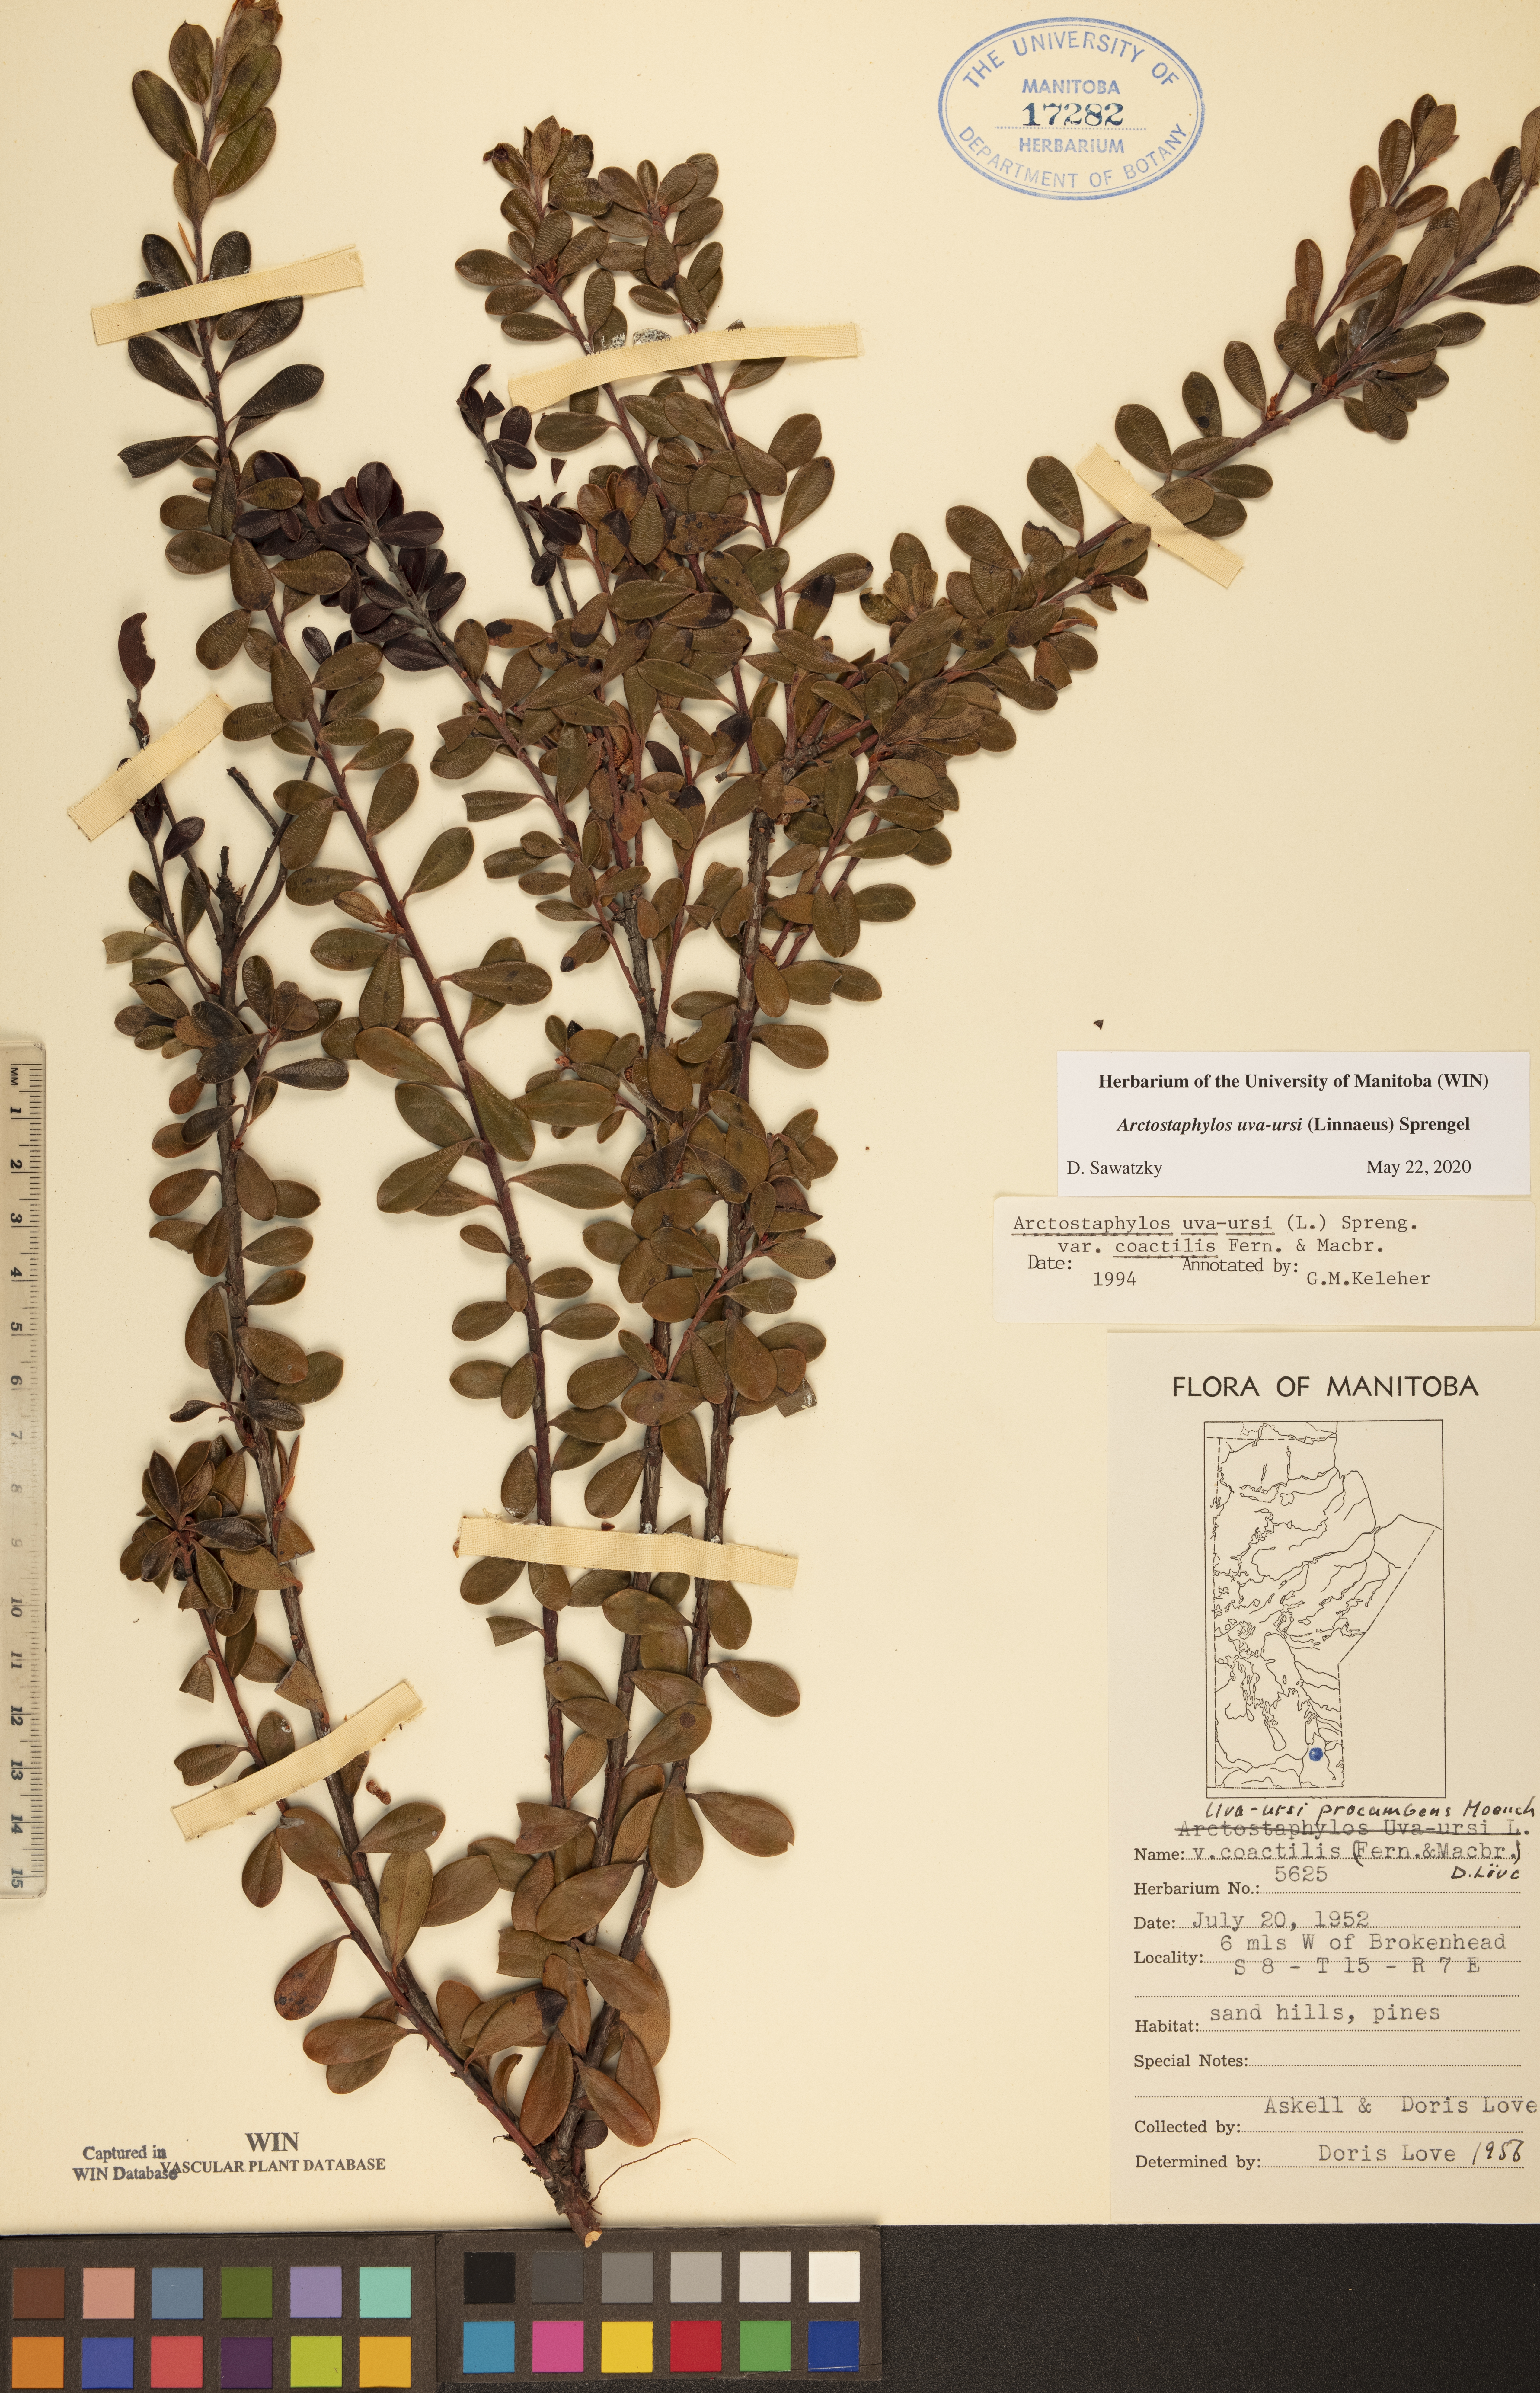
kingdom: Plantae
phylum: Tracheophyta
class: Magnoliopsida
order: Ericales
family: Ericaceae
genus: Arctostaphylos
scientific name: Arctostaphylos uva-ursi
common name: Bearberry
